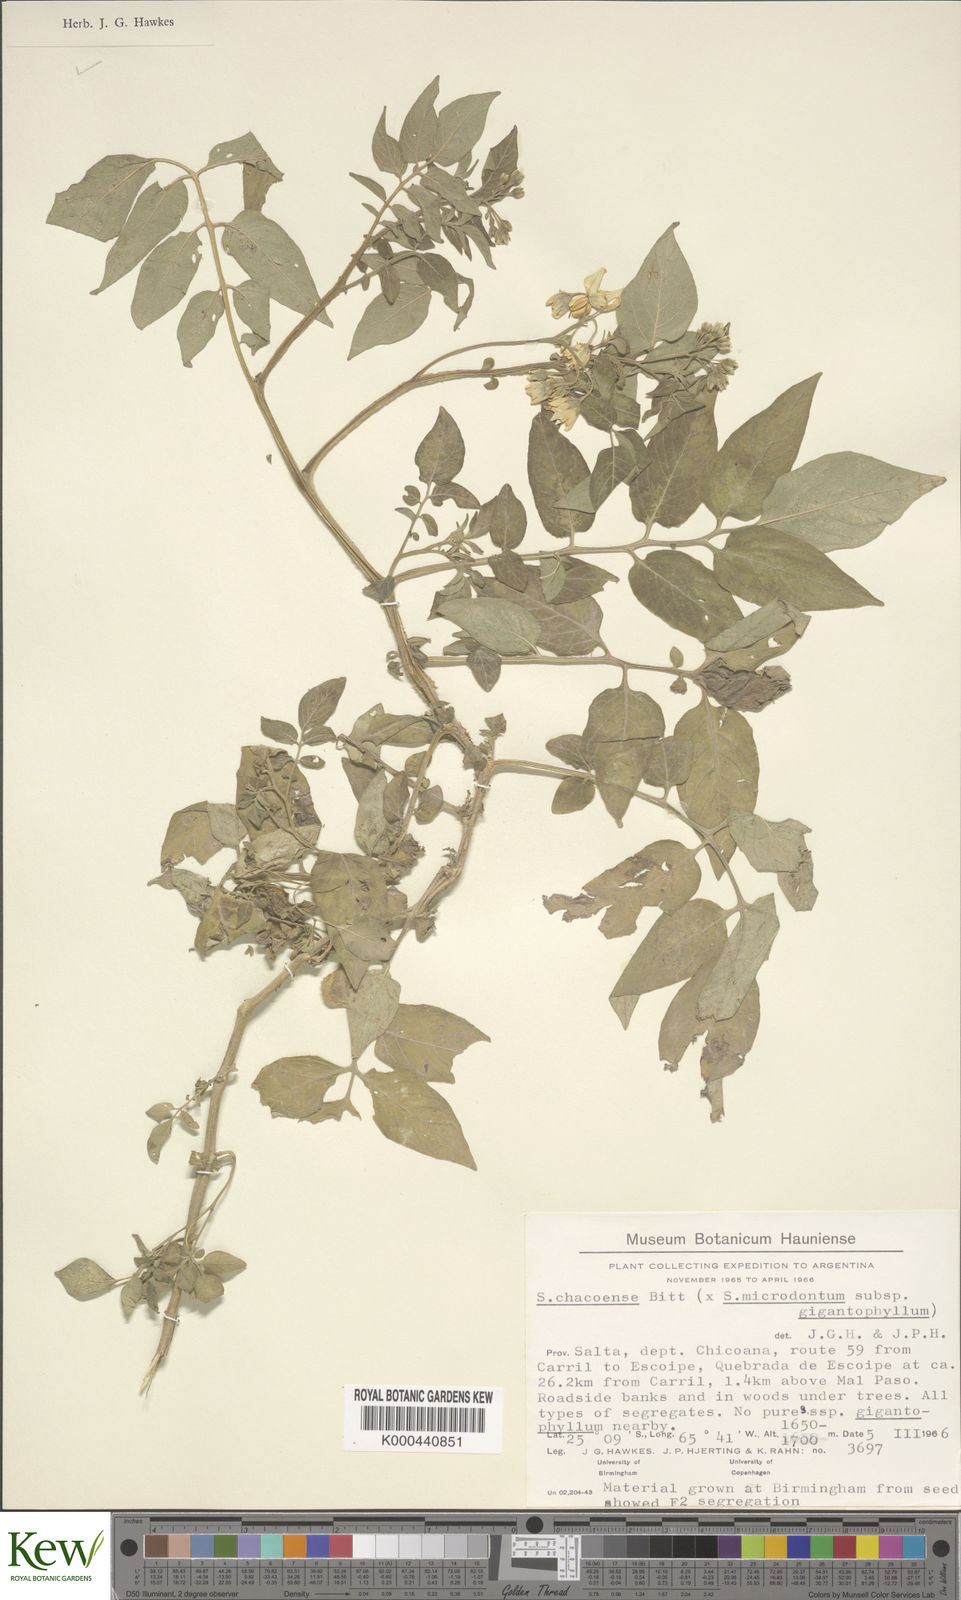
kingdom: Plantae
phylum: Tracheophyta
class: Magnoliopsida
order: Solanales
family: Solanaceae
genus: Solanum
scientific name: Solanum microdontum
